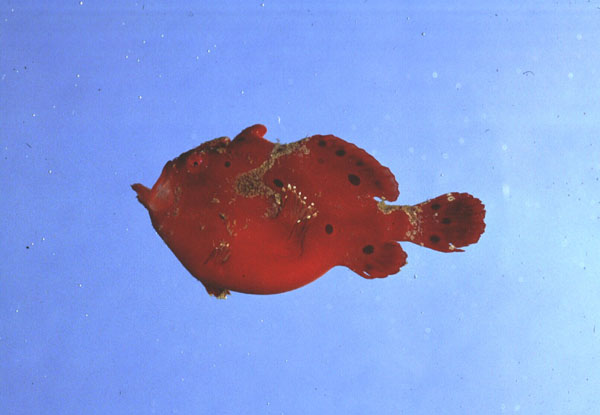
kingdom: Animalia
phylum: Chordata
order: Lophiiformes
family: Antennariidae
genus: Antennarius
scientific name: Antennarius pictus
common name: Painted frogfish
